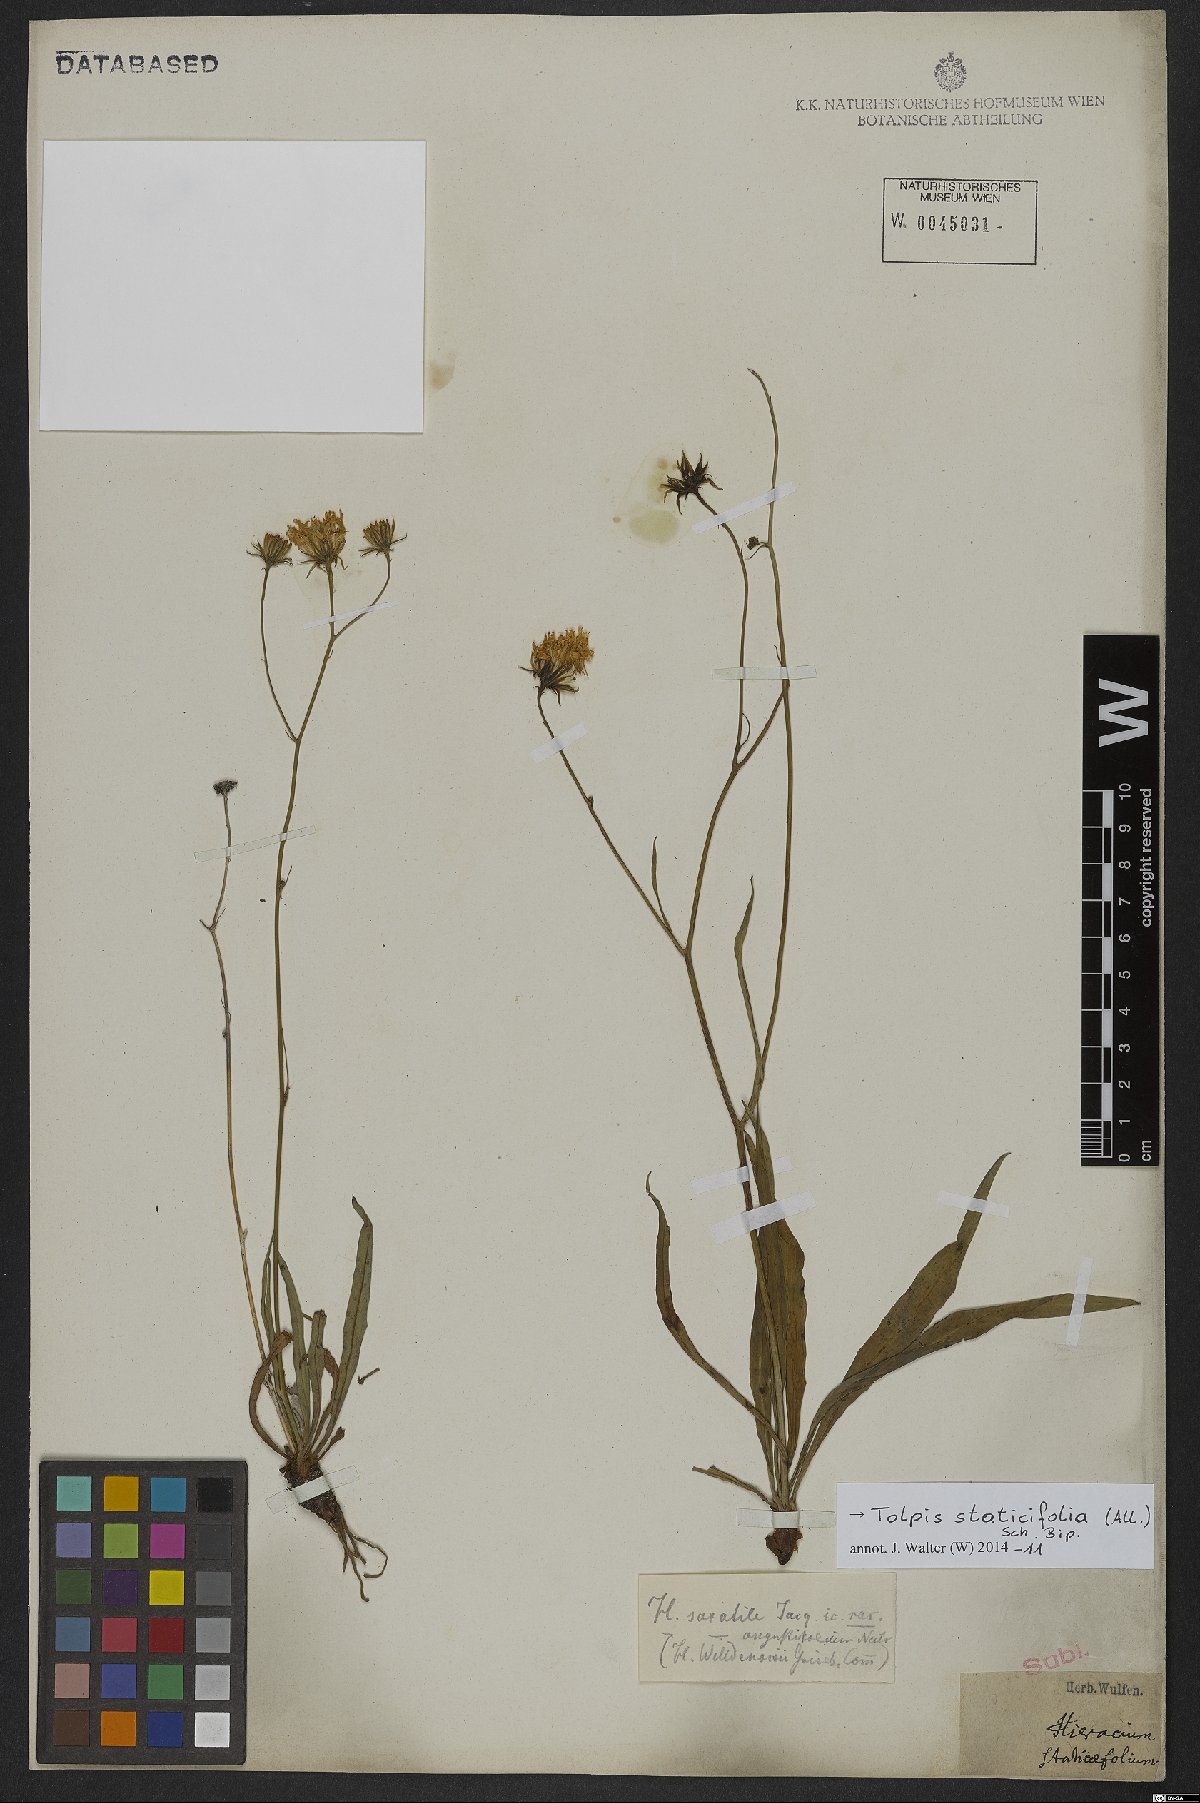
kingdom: Plantae
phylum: Tracheophyta
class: Magnoliopsida
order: Asterales
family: Asteraceae
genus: Tolpis
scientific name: Tolpis staticifolia
